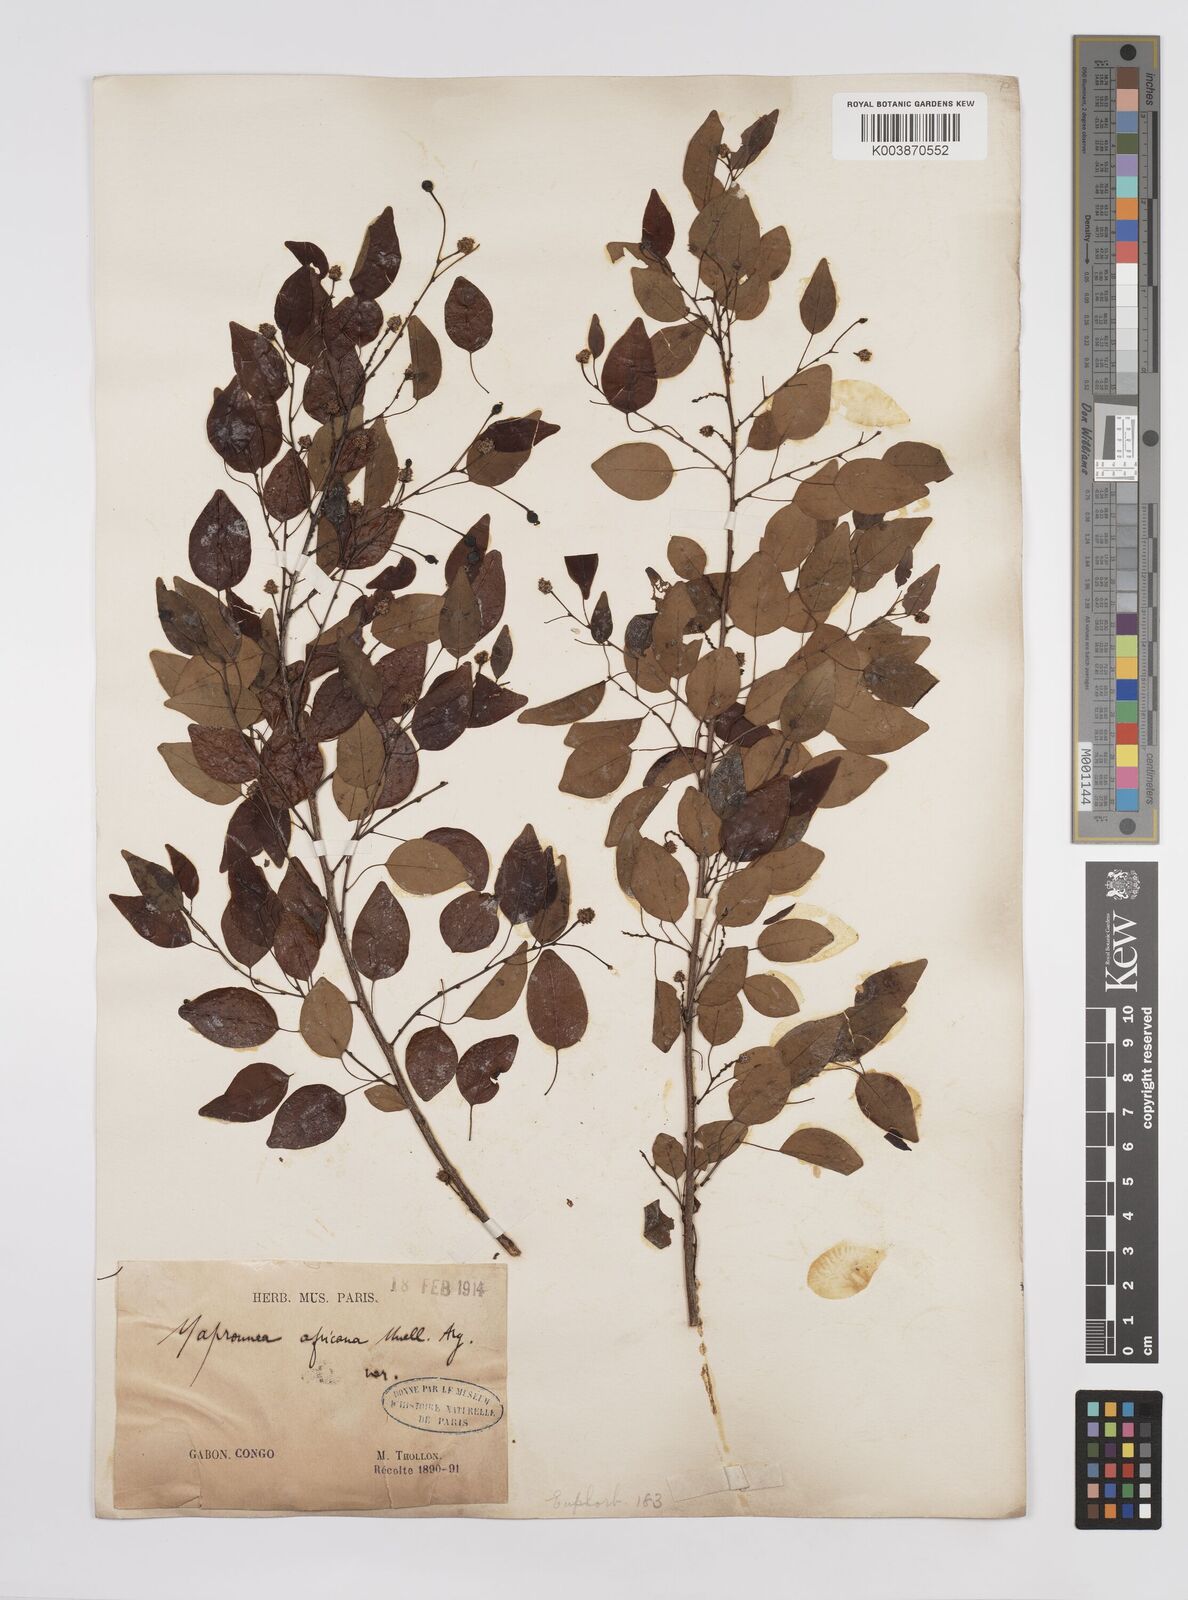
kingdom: Plantae
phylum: Tracheophyta
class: Magnoliopsida
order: Malpighiales
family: Euphorbiaceae
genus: Maprounea
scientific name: Maprounea africana
